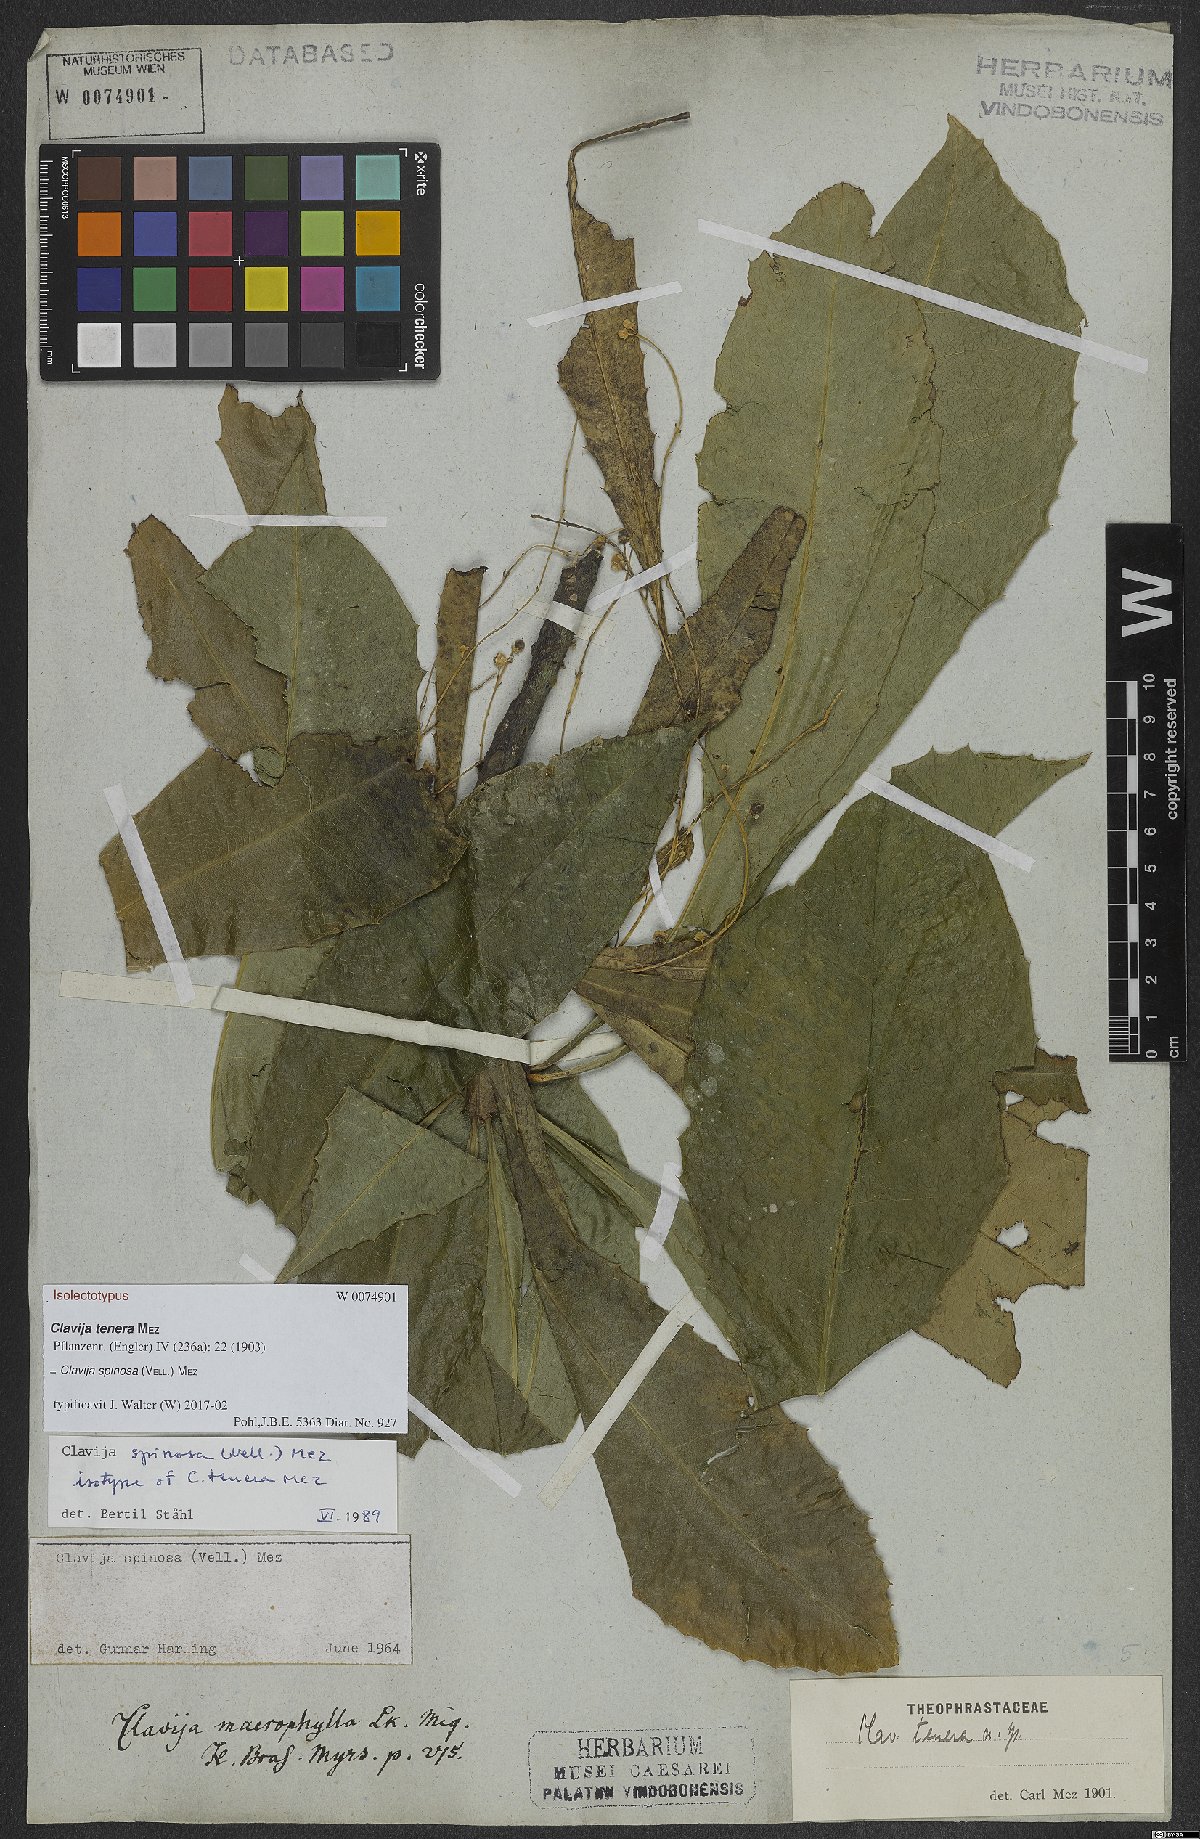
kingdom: Plantae
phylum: Tracheophyta
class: Magnoliopsida
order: Ericales
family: Primulaceae
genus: Clavija
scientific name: Clavija spinosa
